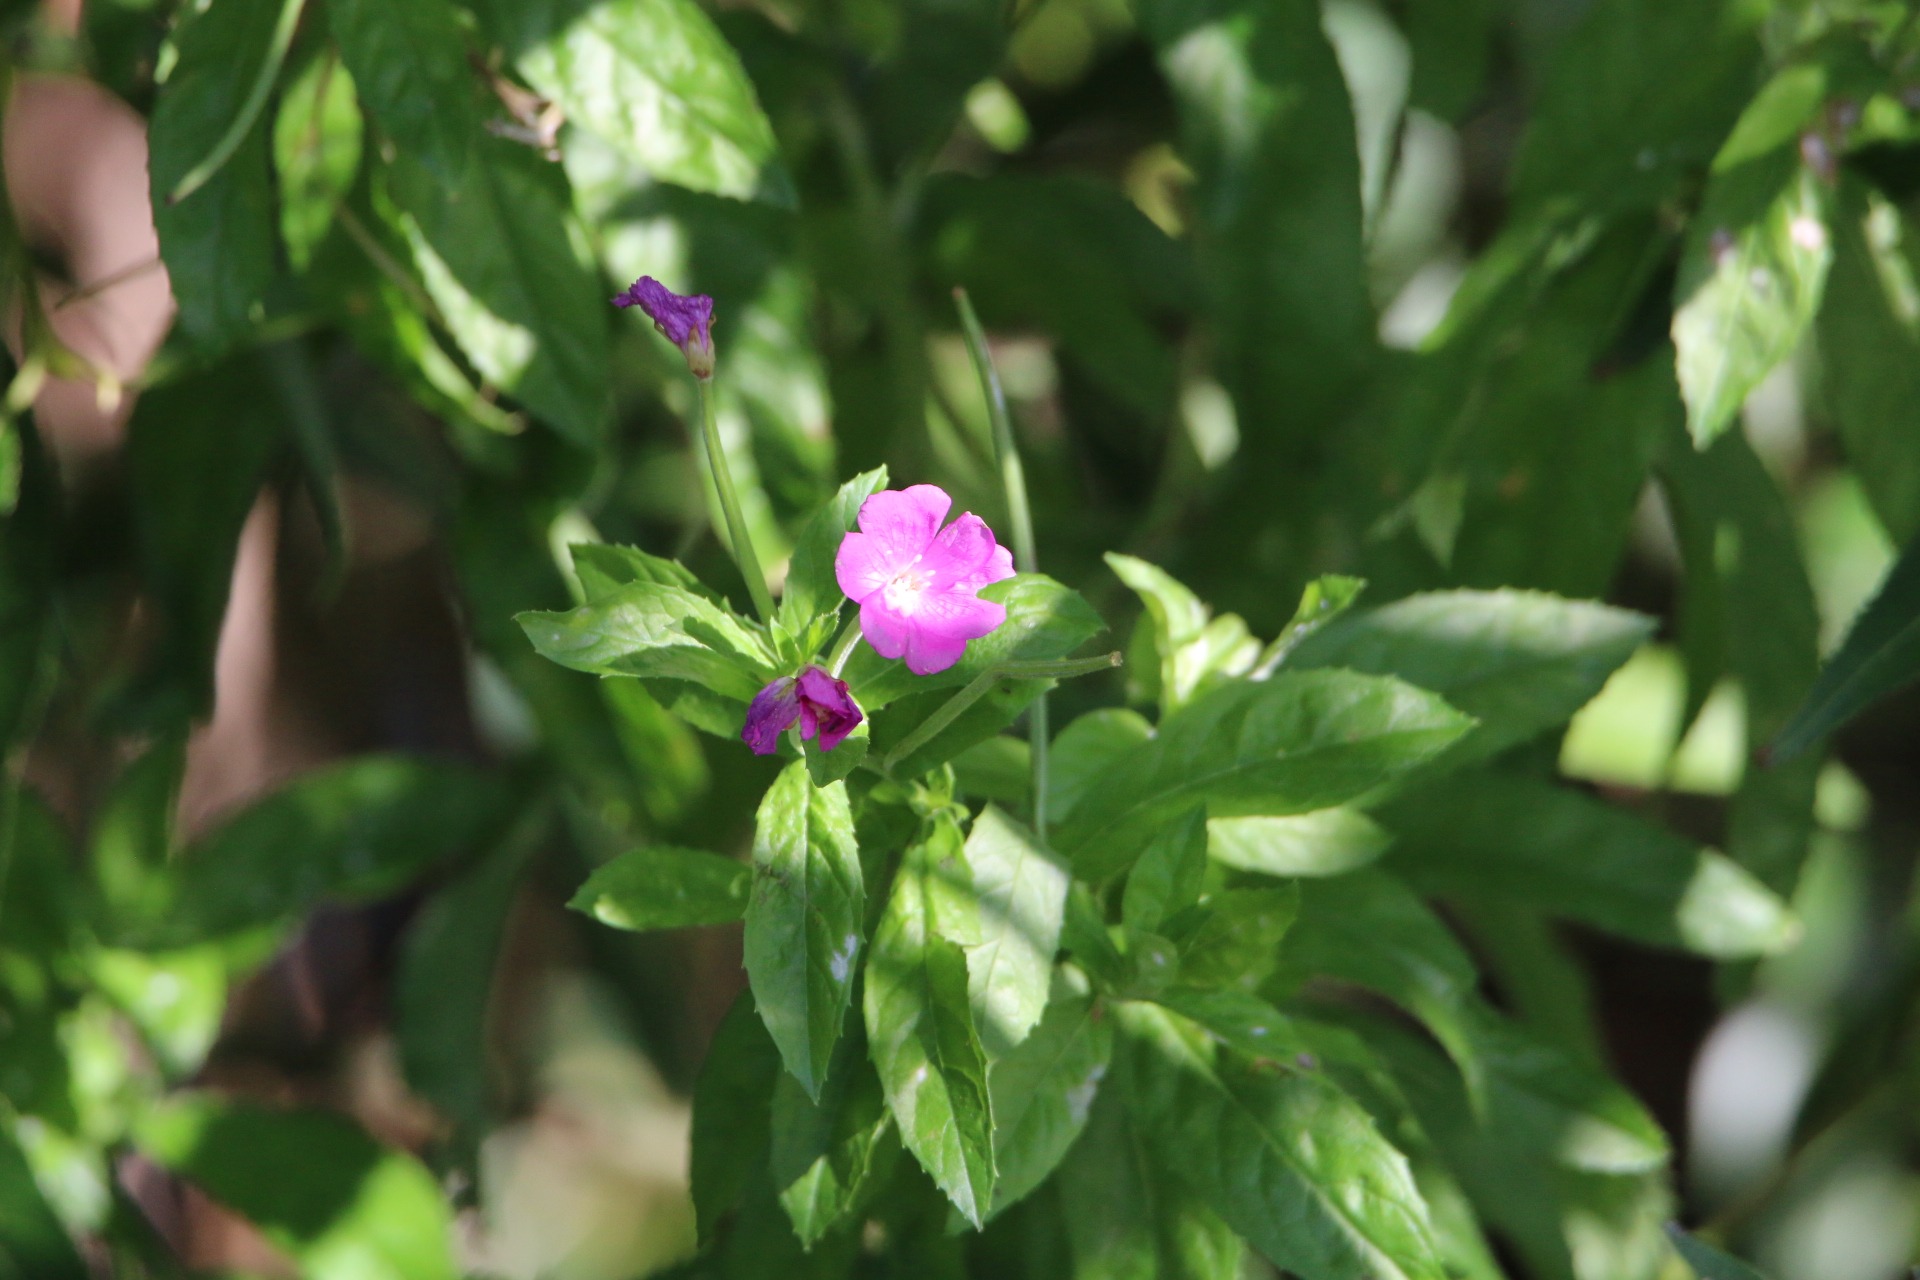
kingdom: Plantae
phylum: Tracheophyta
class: Magnoliopsida
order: Myrtales
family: Onagraceae
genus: Epilobium
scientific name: Epilobium hirsutum
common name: Lådden dueurt
